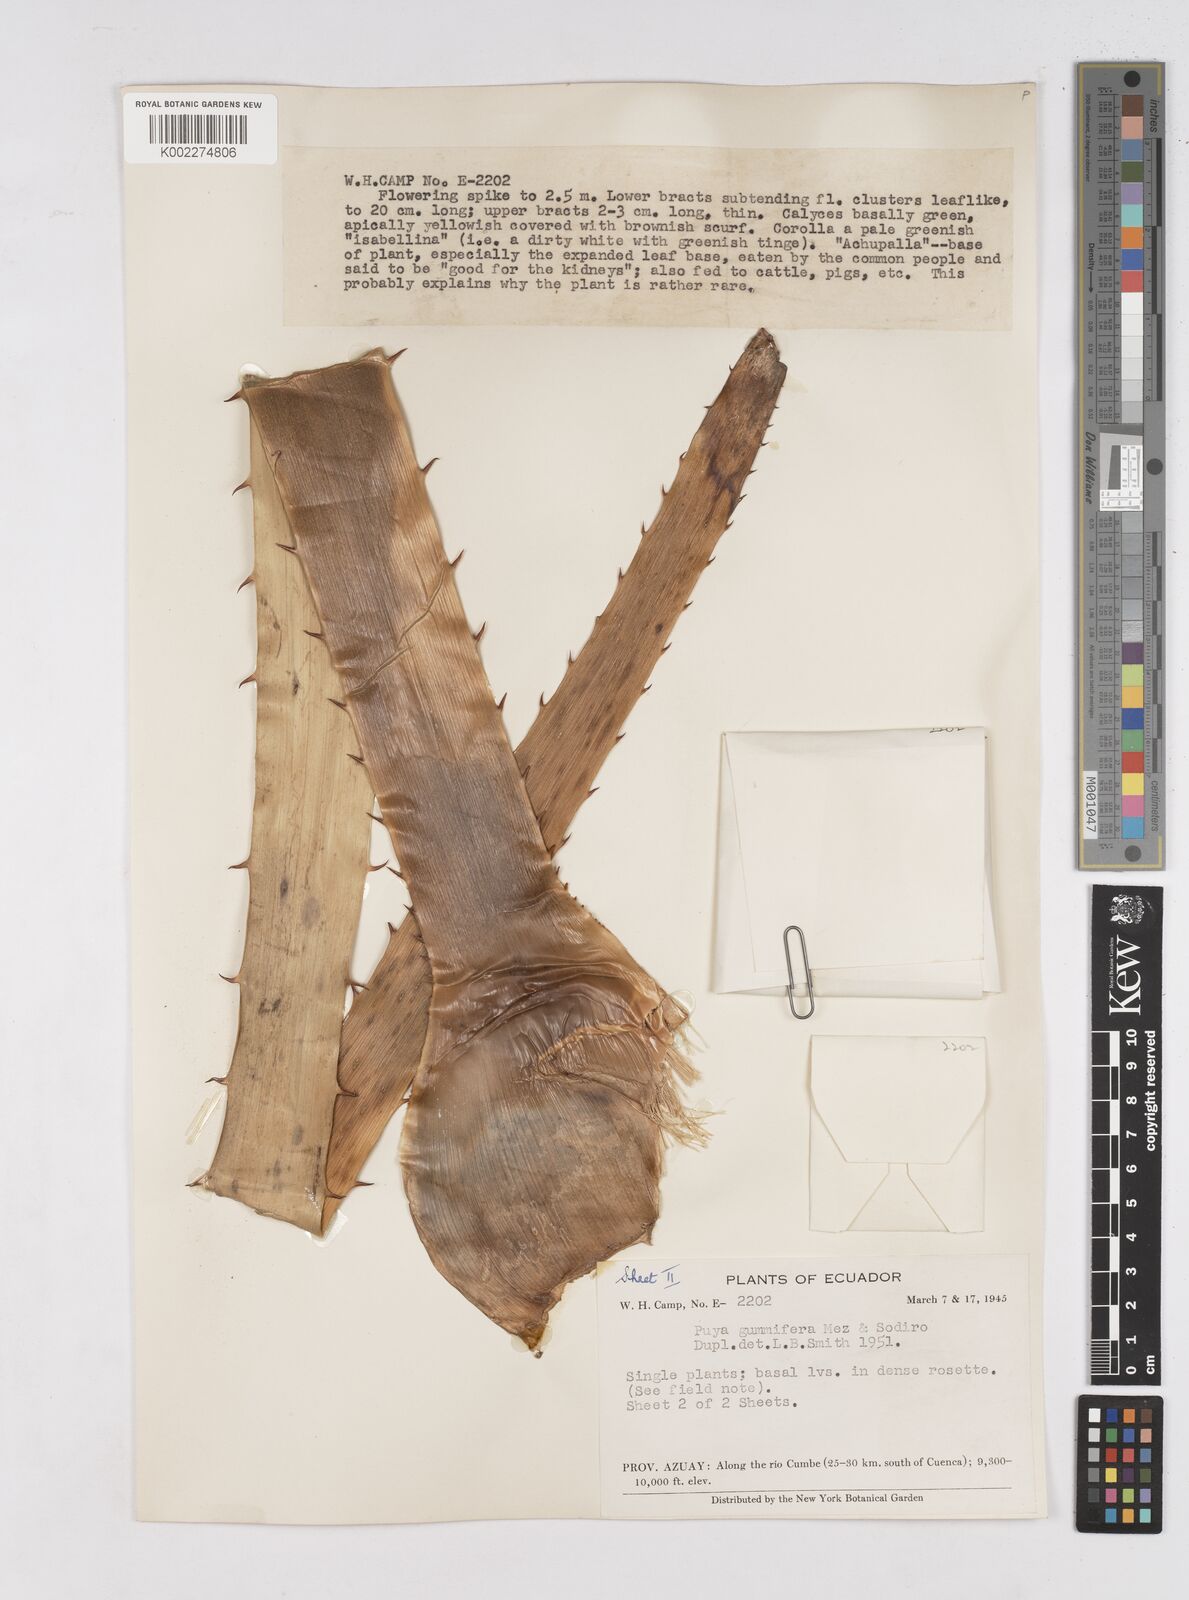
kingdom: Plantae
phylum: Tracheophyta
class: Liliopsida
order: Poales
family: Bromeliaceae
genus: Puya
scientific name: Puya sodiroana
